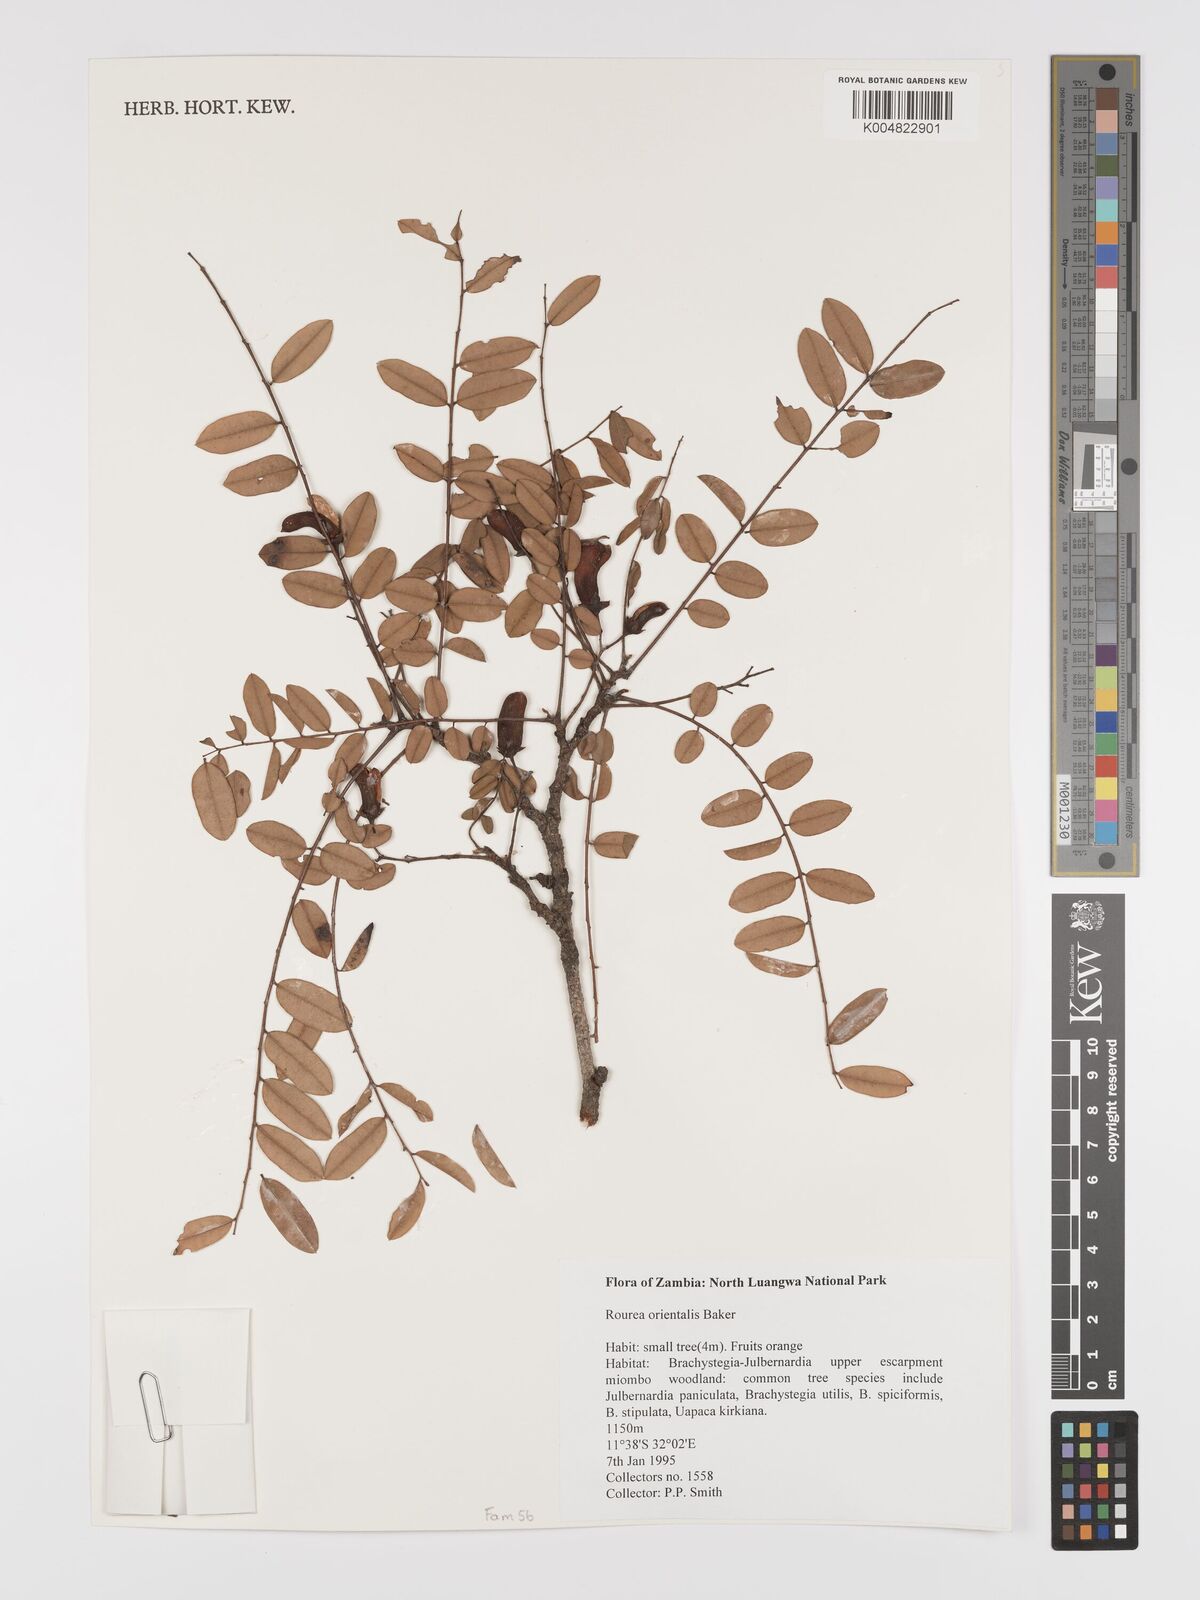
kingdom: Plantae
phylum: Tracheophyta
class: Magnoliopsida
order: Oxalidales
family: Connaraceae
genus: Rourea
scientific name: Rourea orientalis
